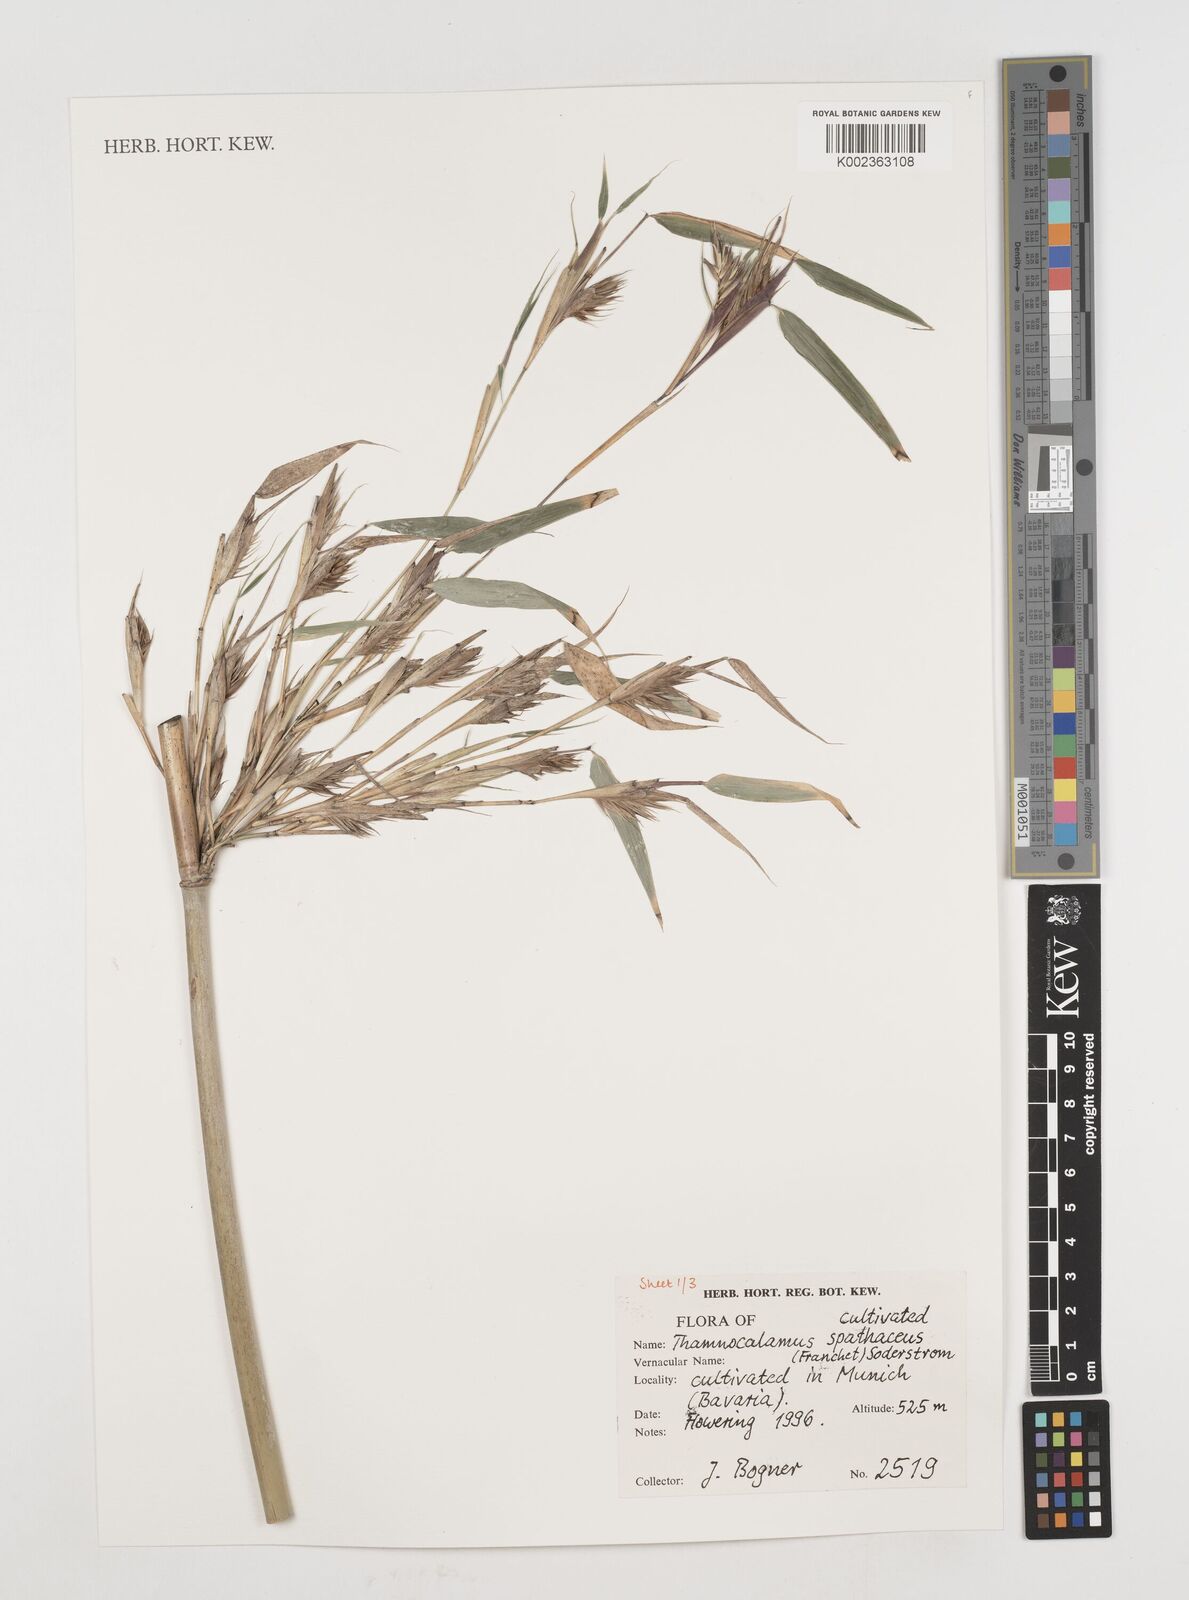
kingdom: Plantae
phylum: Tracheophyta
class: Liliopsida
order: Poales
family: Poaceae
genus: Fargesia
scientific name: Fargesia murielae
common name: Umbrella bamboo
